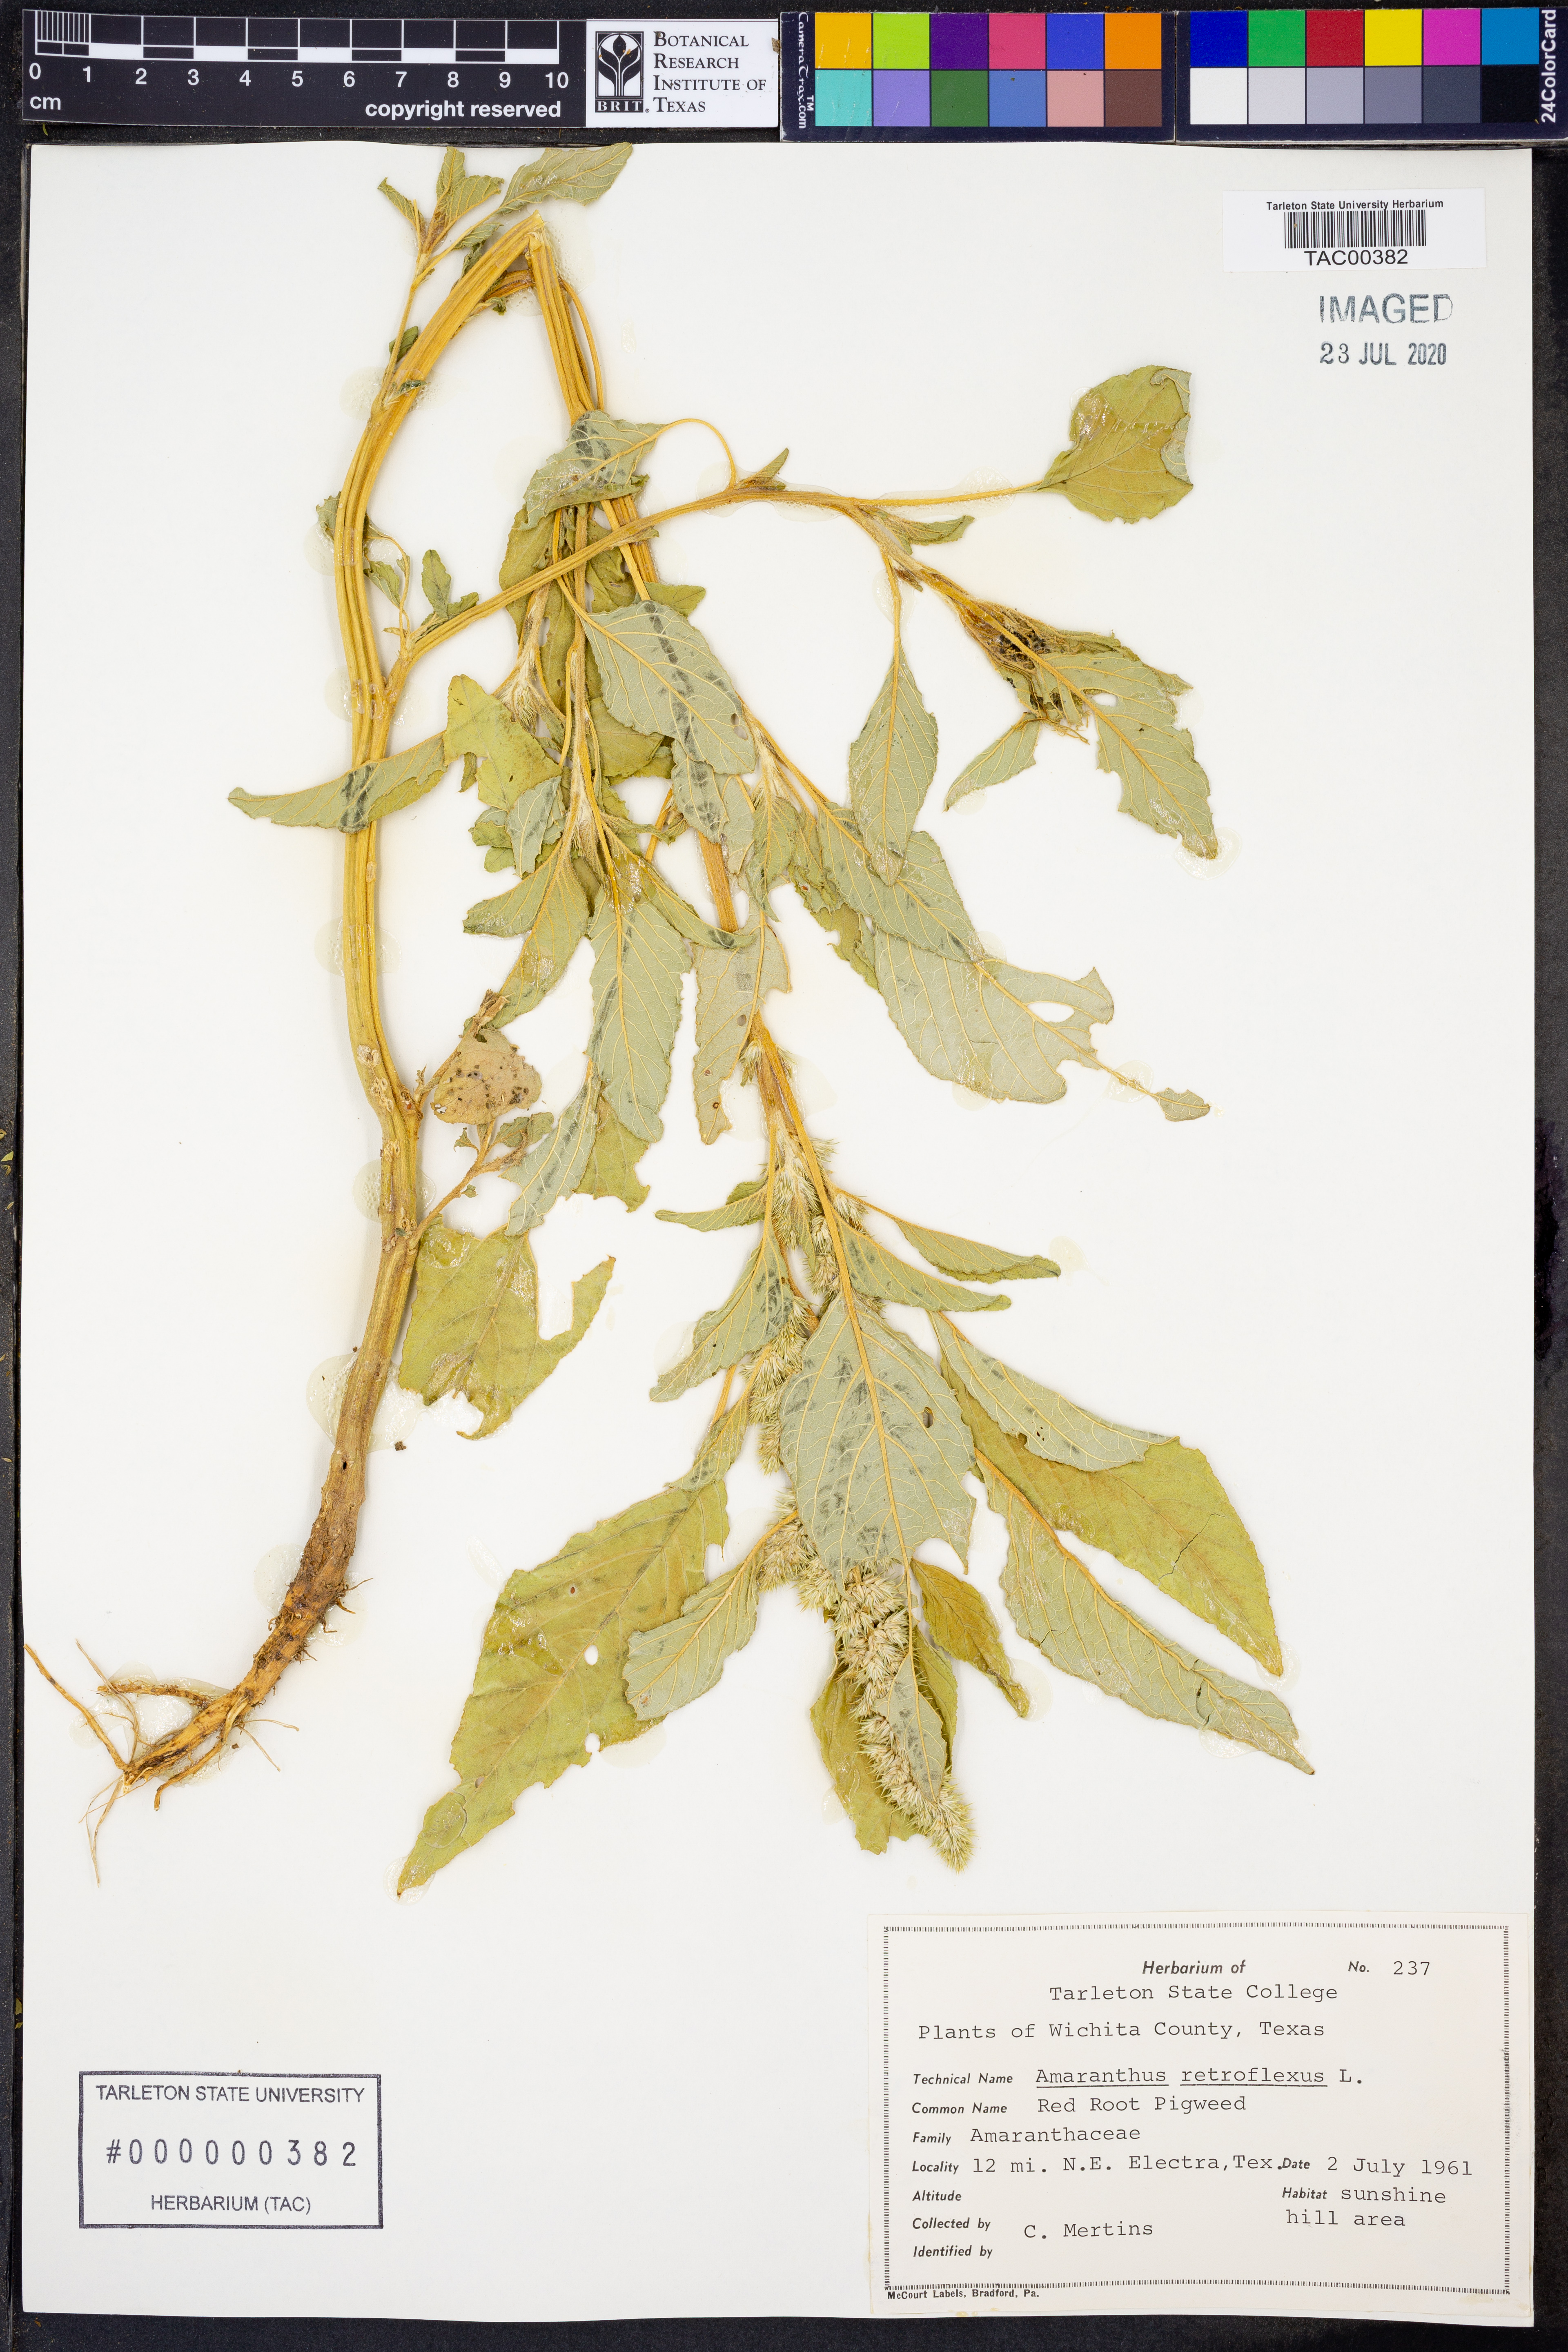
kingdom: Plantae
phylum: Tracheophyta
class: Magnoliopsida
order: Caryophyllales
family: Amaranthaceae
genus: Amaranthus
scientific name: Amaranthus retroflexus
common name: Redroot amaranth
